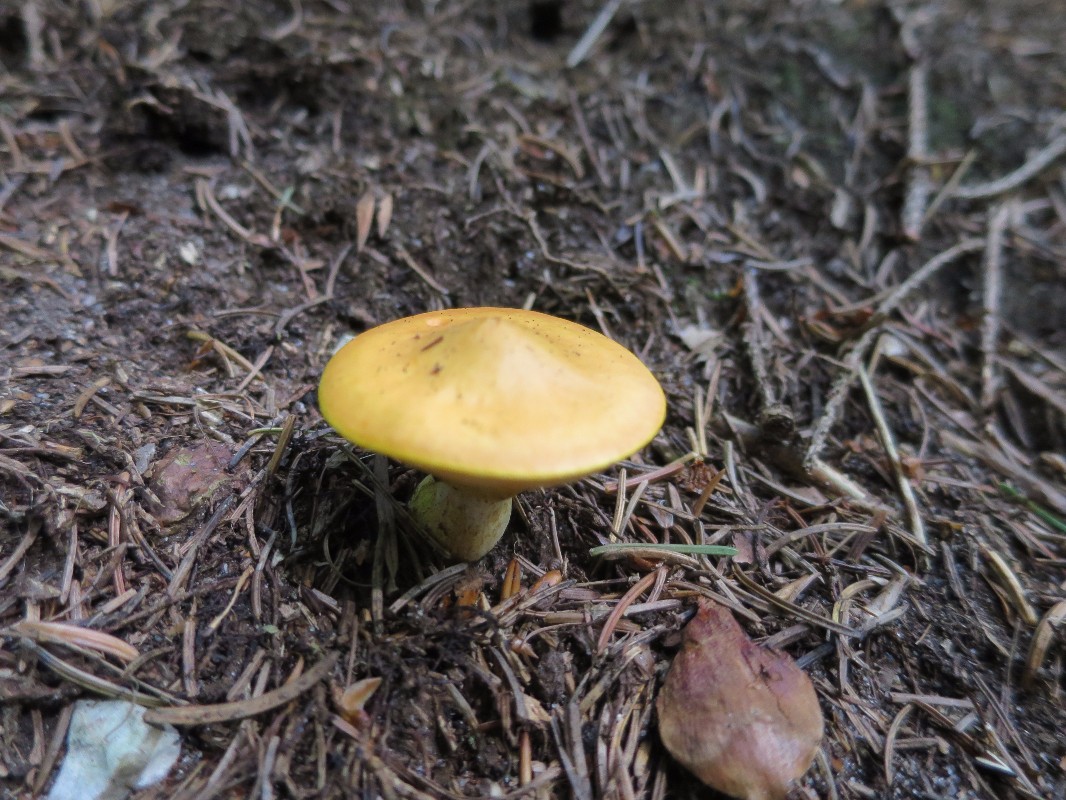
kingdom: Fungi
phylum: Basidiomycota
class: Agaricomycetes
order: Boletales
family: Suillaceae
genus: Suillus
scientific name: Suillus grevillei
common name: lærke-slimrørhat
